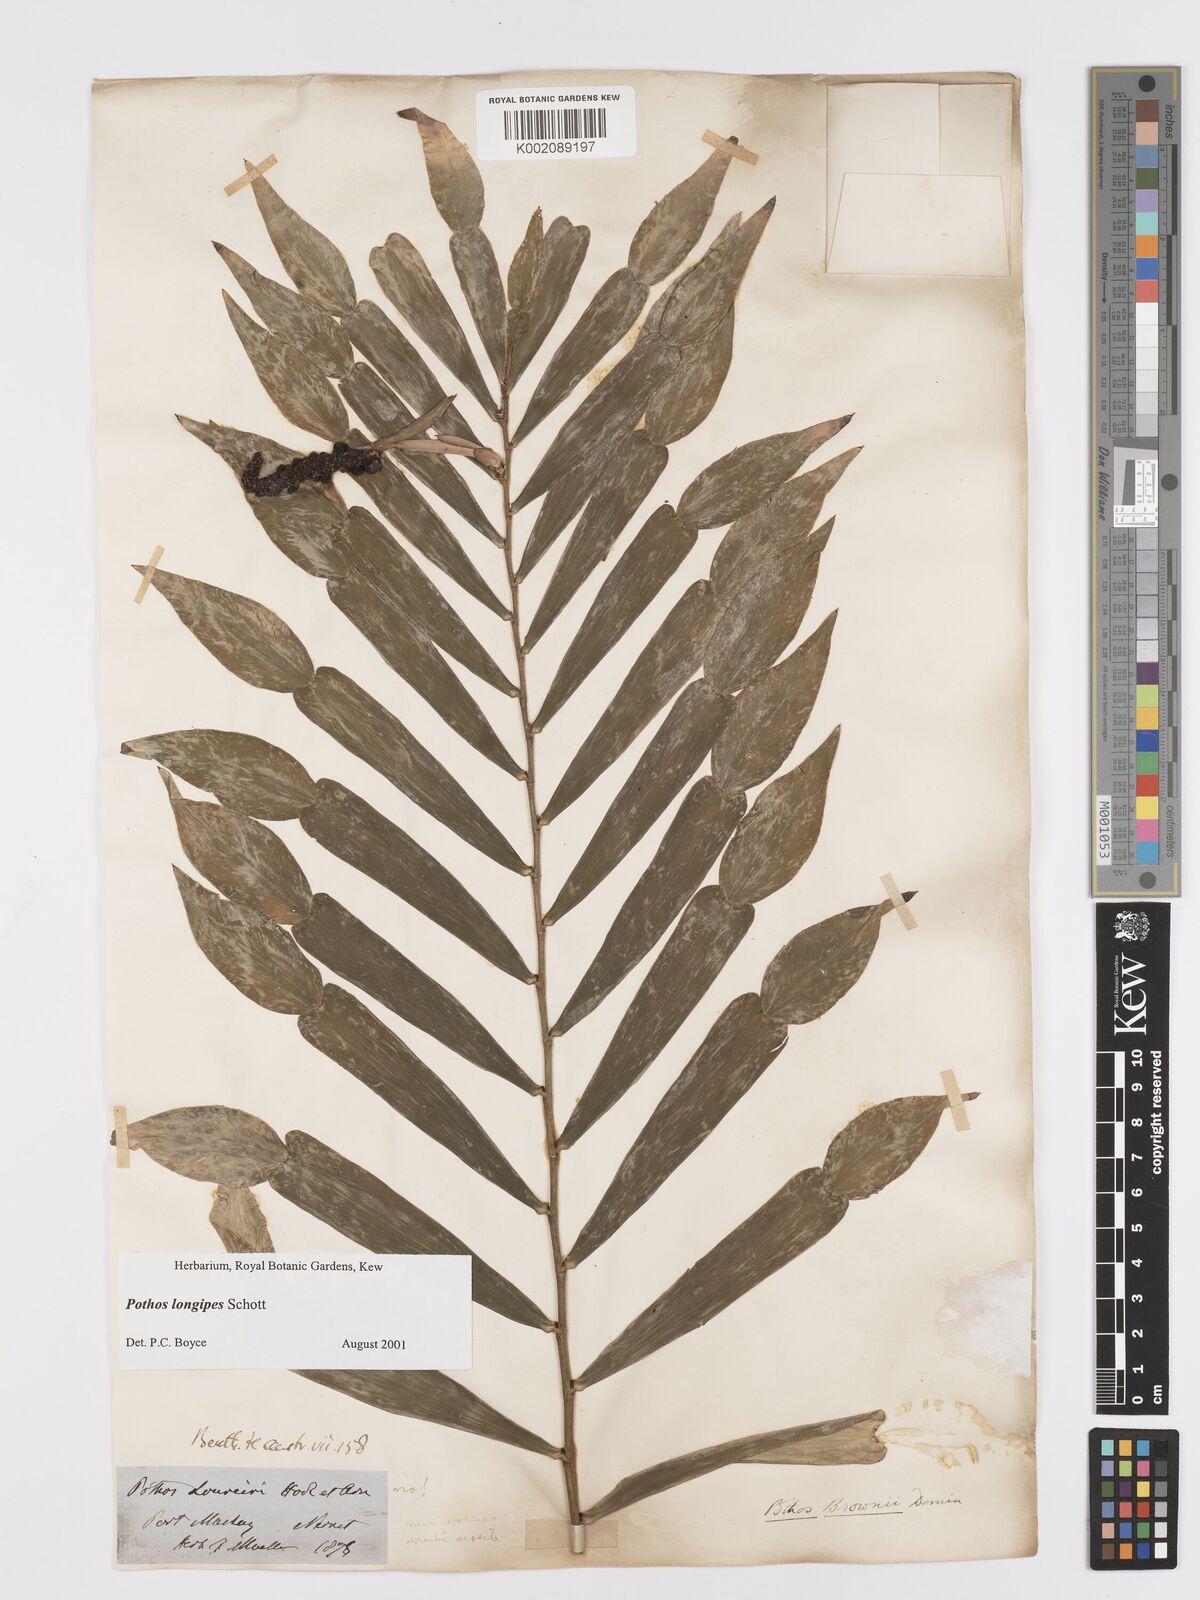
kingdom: Plantae
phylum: Tracheophyta
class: Liliopsida
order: Alismatales
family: Araceae
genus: Pothos
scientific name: Pothos longipes
